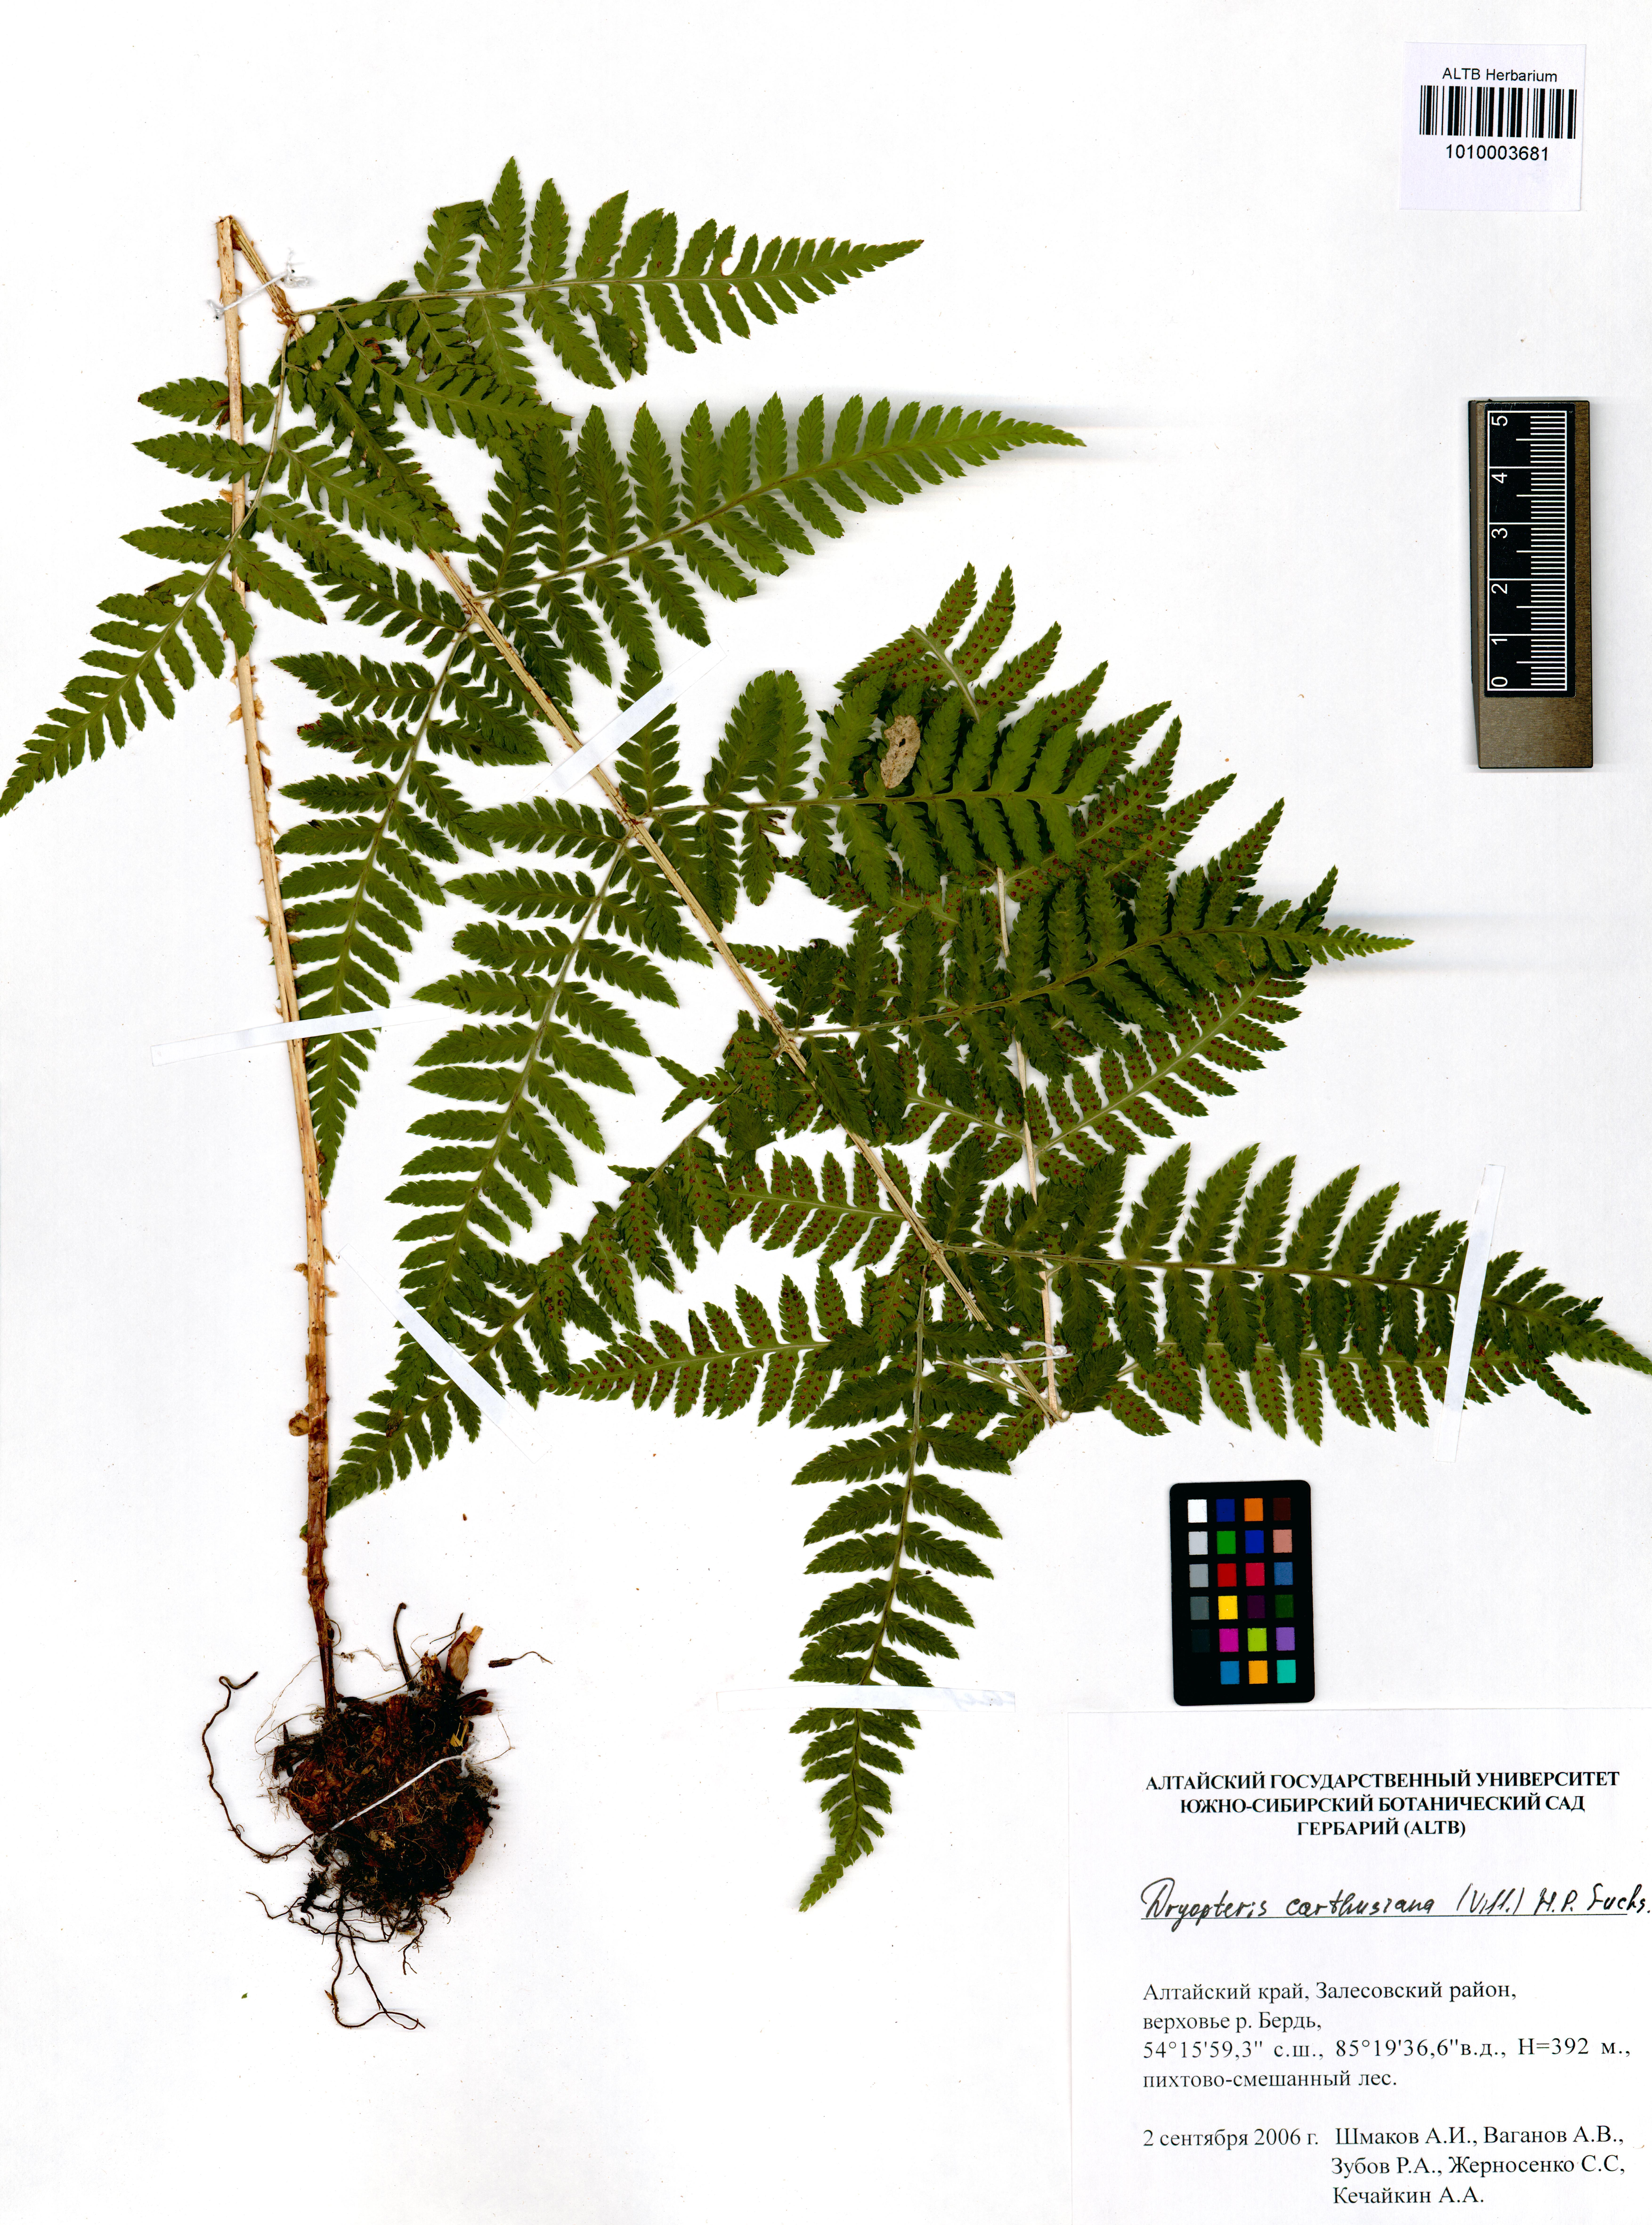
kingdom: Plantae
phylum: Tracheophyta
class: Polypodiopsida
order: Polypodiales
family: Dryopteridaceae
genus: Dryopteris
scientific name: Dryopteris carthusiana
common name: Narrow buckler-fern
